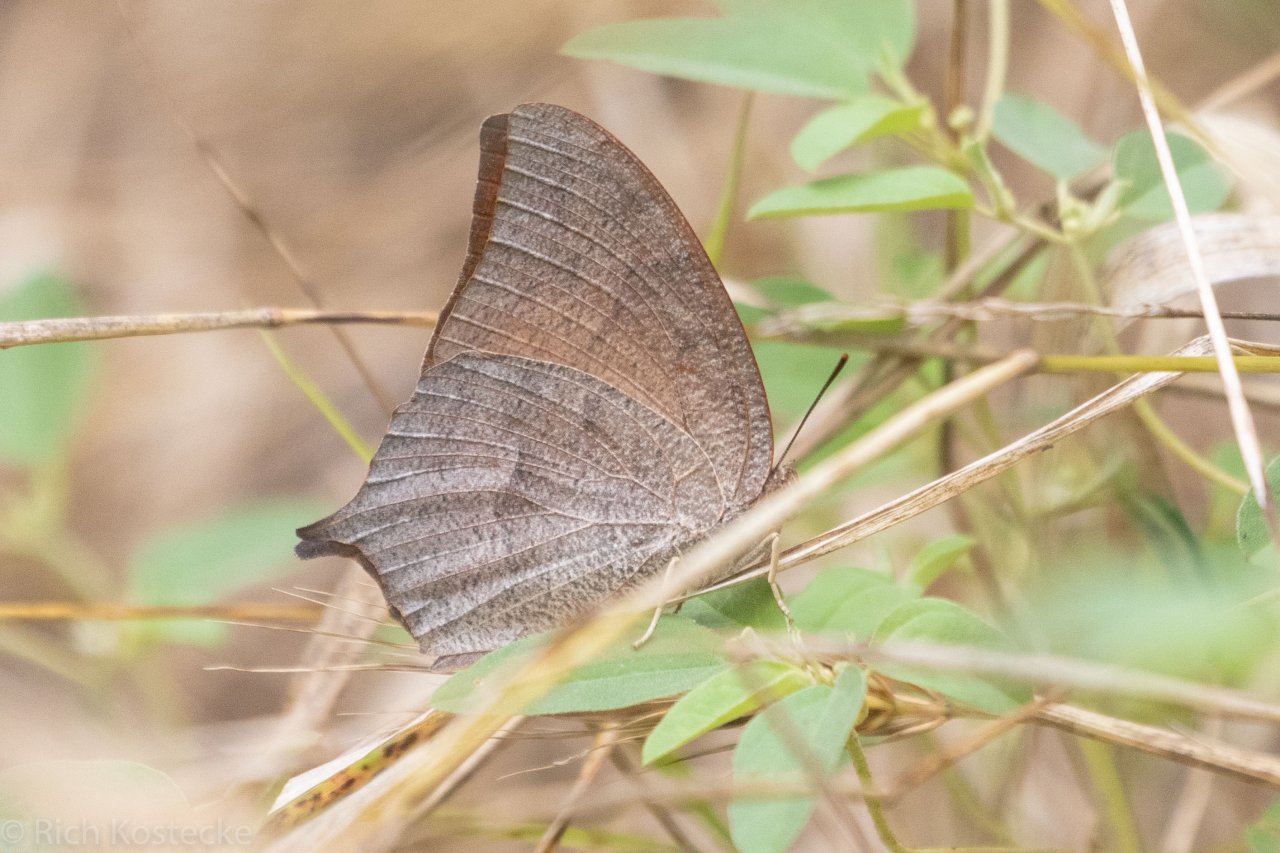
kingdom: Animalia
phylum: Arthropoda
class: Insecta
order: Lepidoptera
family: Nymphalidae
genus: Anaea
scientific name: Anaea andria
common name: Goatweed Leafwing
